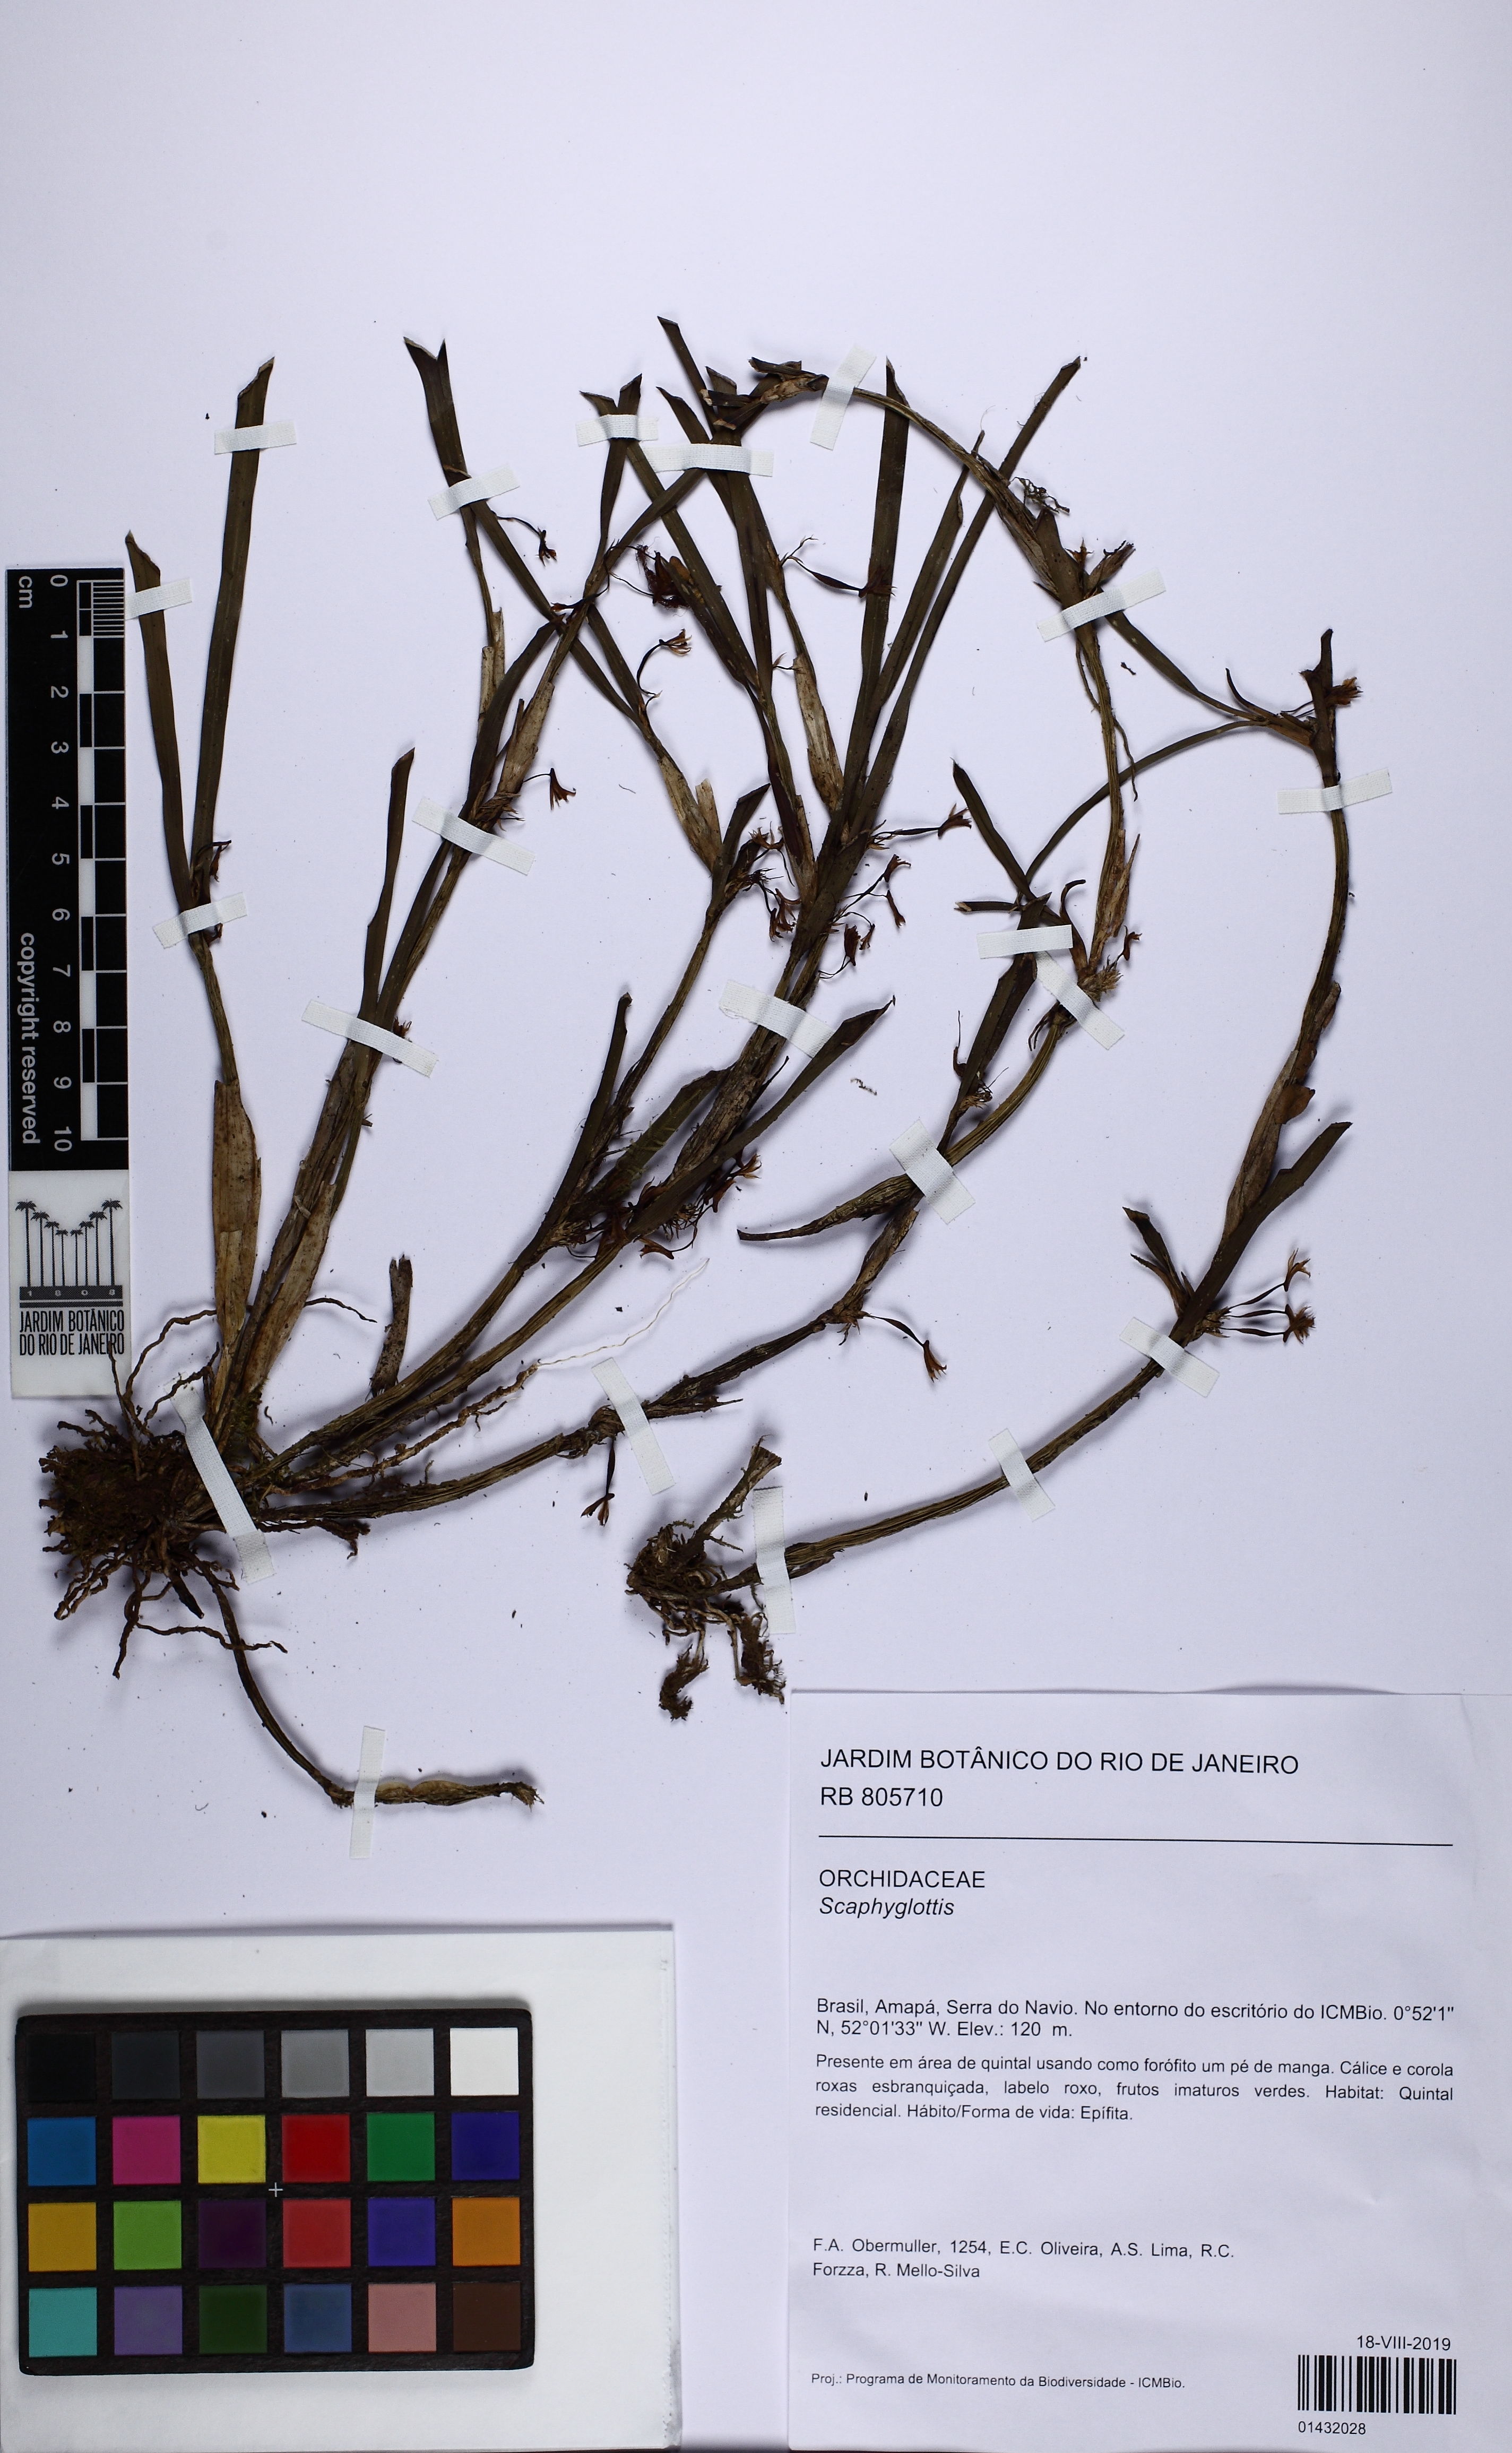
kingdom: Plantae
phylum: Tracheophyta
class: Liliopsida
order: Asparagales
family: Orchidaceae
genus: Scaphyglottis
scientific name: Scaphyglottis
